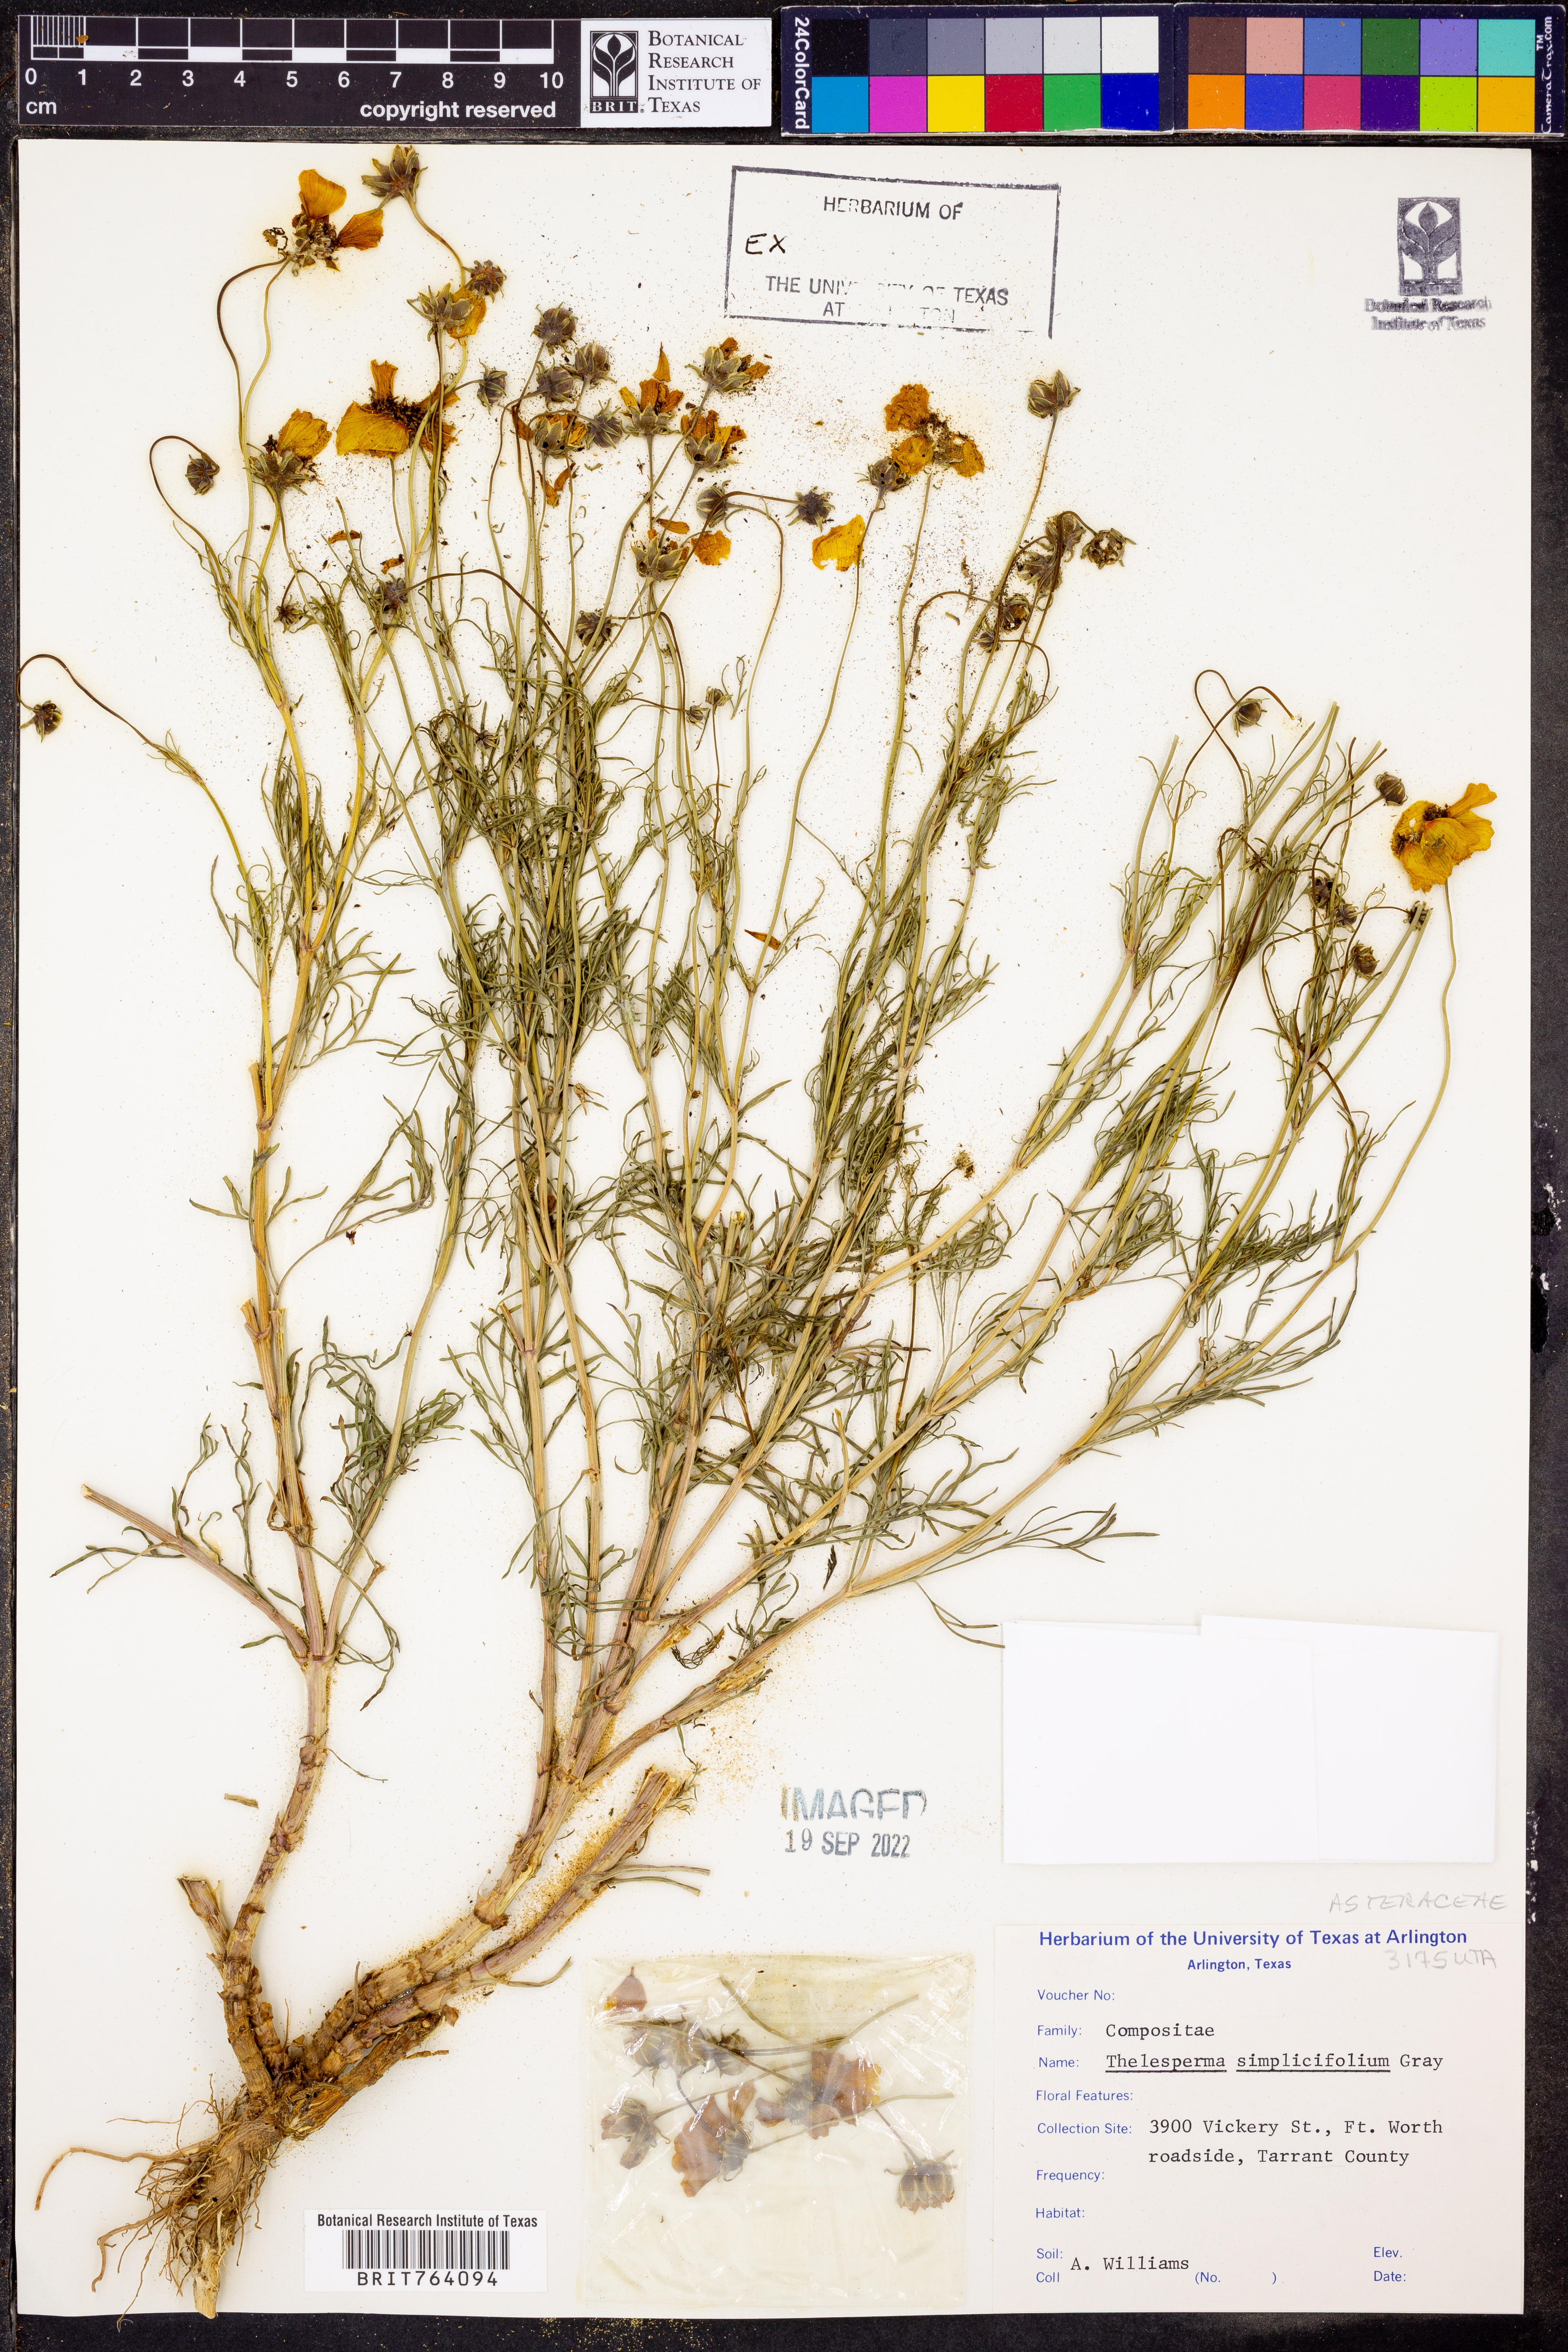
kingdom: Plantae
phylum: Tracheophyta
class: Magnoliopsida
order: Asterales
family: Asteraceae
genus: Thelesperma
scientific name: Thelesperma simplicifolium
